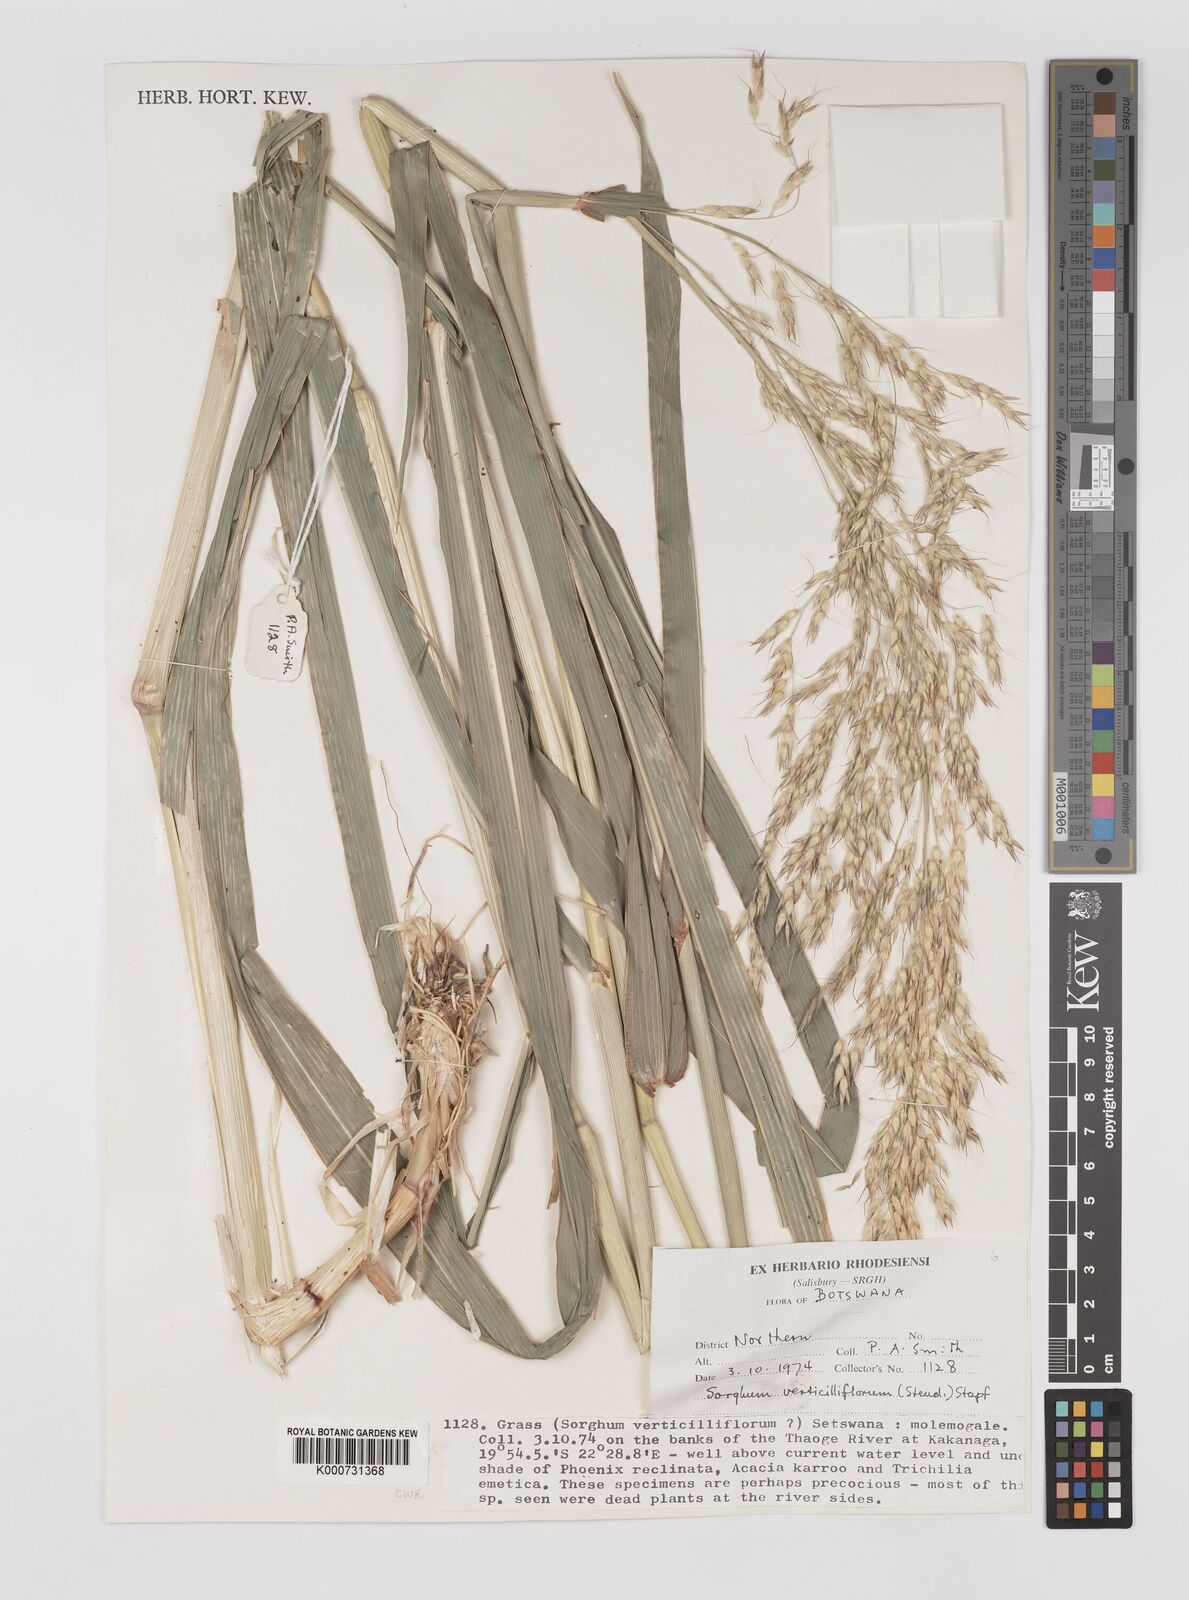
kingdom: Plantae
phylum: Tracheophyta
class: Liliopsida
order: Poales
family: Poaceae
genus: Sorghum
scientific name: Sorghum arundinaceum
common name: Sorghum
